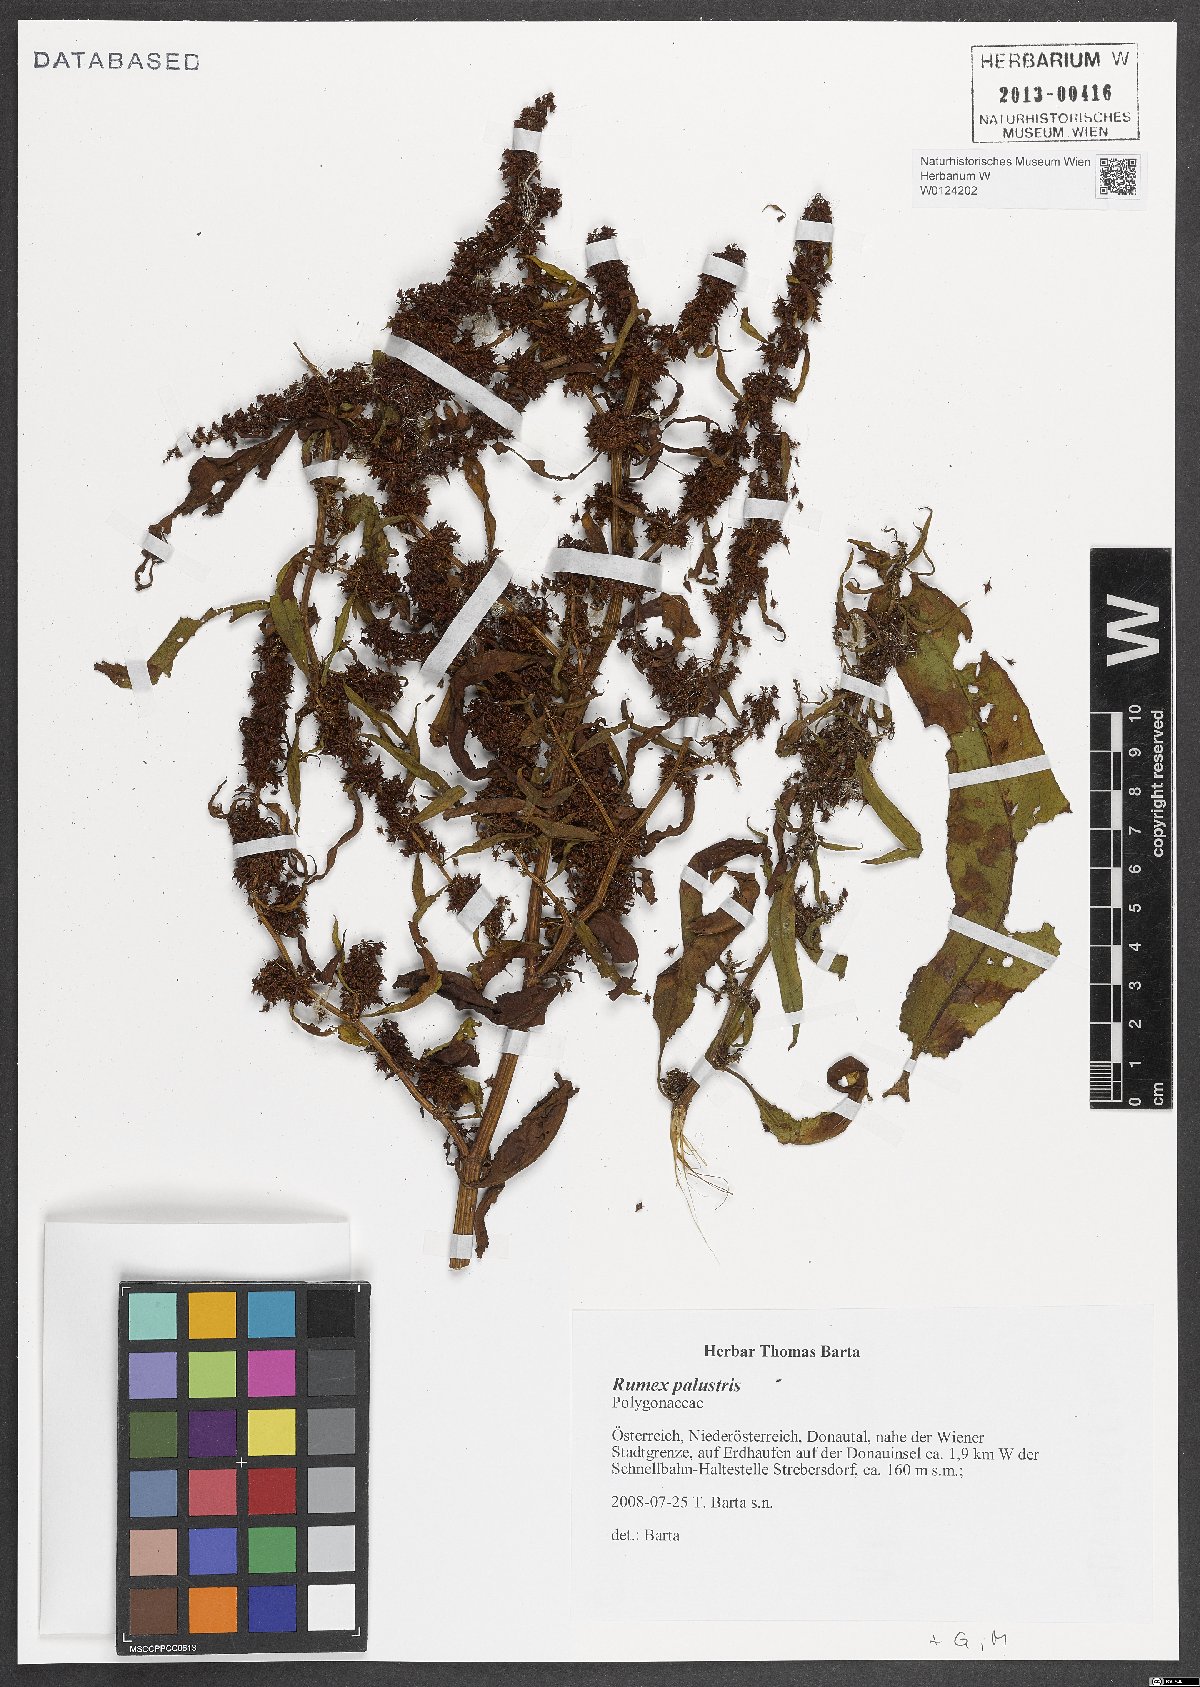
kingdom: Plantae
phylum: Tracheophyta
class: Magnoliopsida
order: Caryophyllales
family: Polygonaceae
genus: Rumex
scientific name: Rumex palustris
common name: Marsh dock
